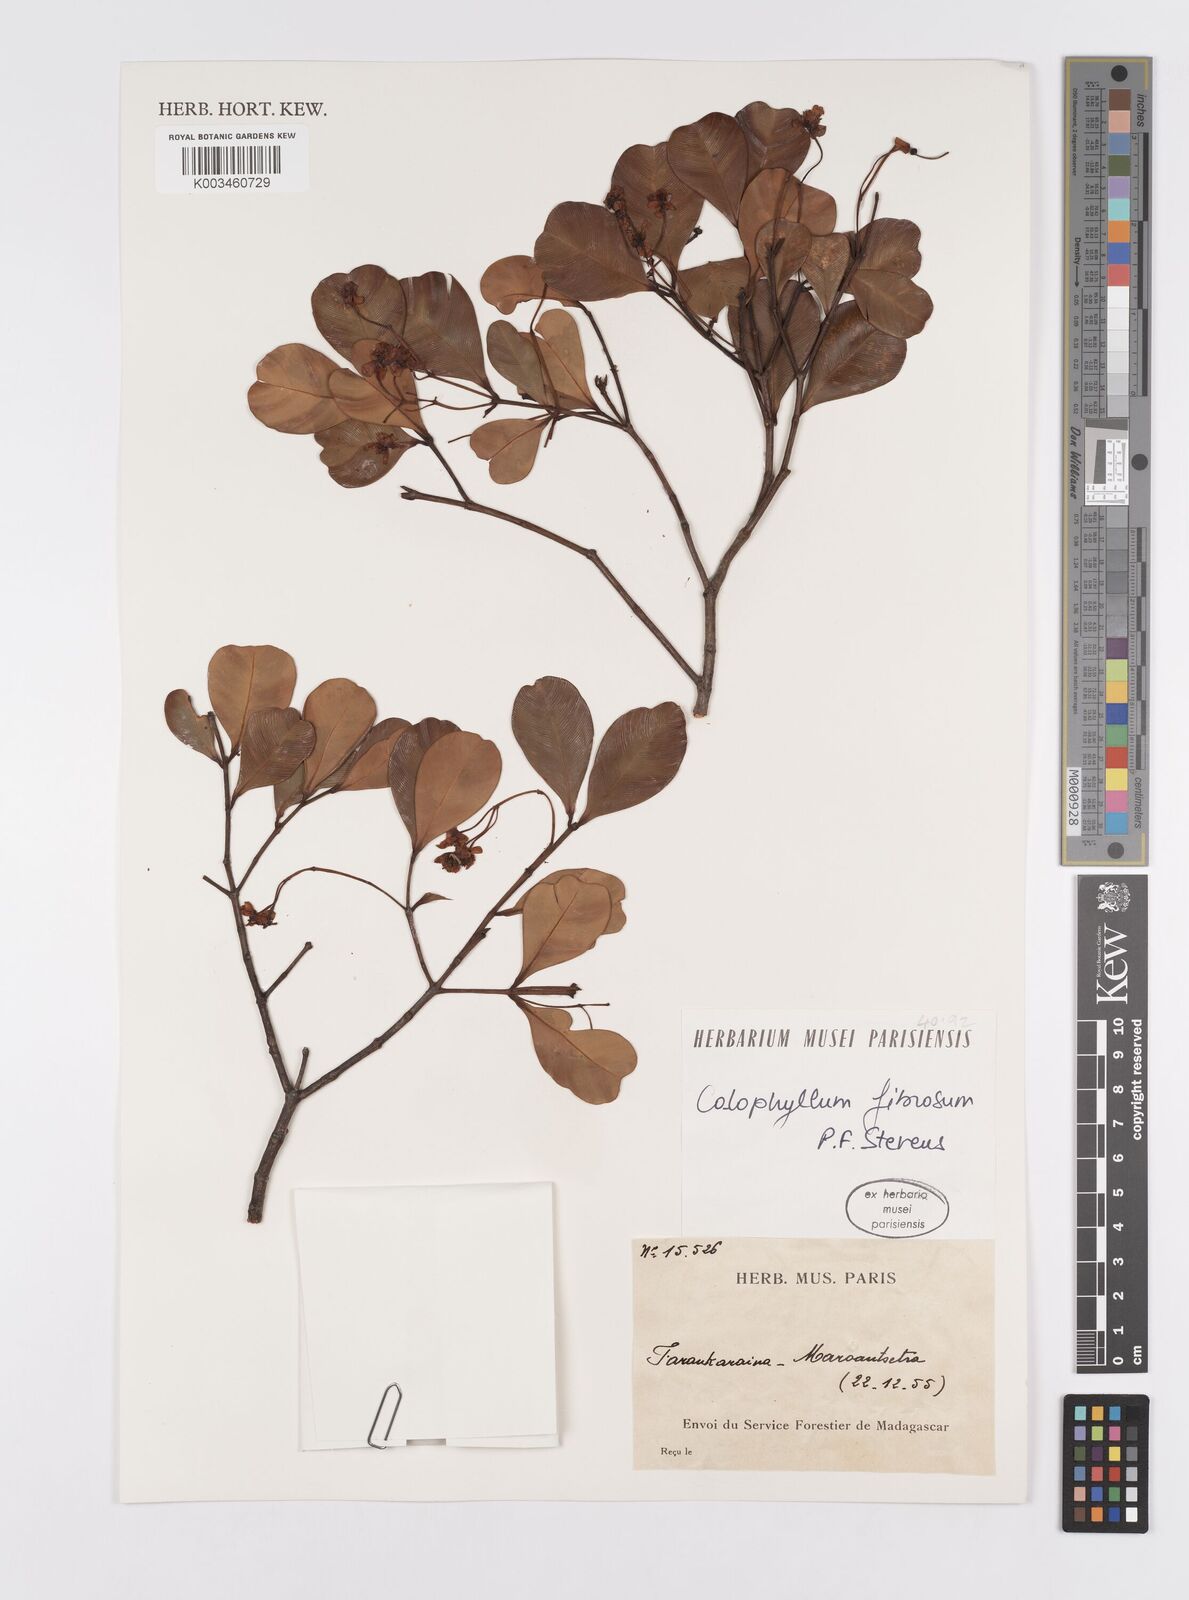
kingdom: Plantae
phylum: Tracheophyta
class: Magnoliopsida
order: Malpighiales
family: Calophyllaceae
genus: Calophyllum
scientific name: Calophyllum fibrosum
